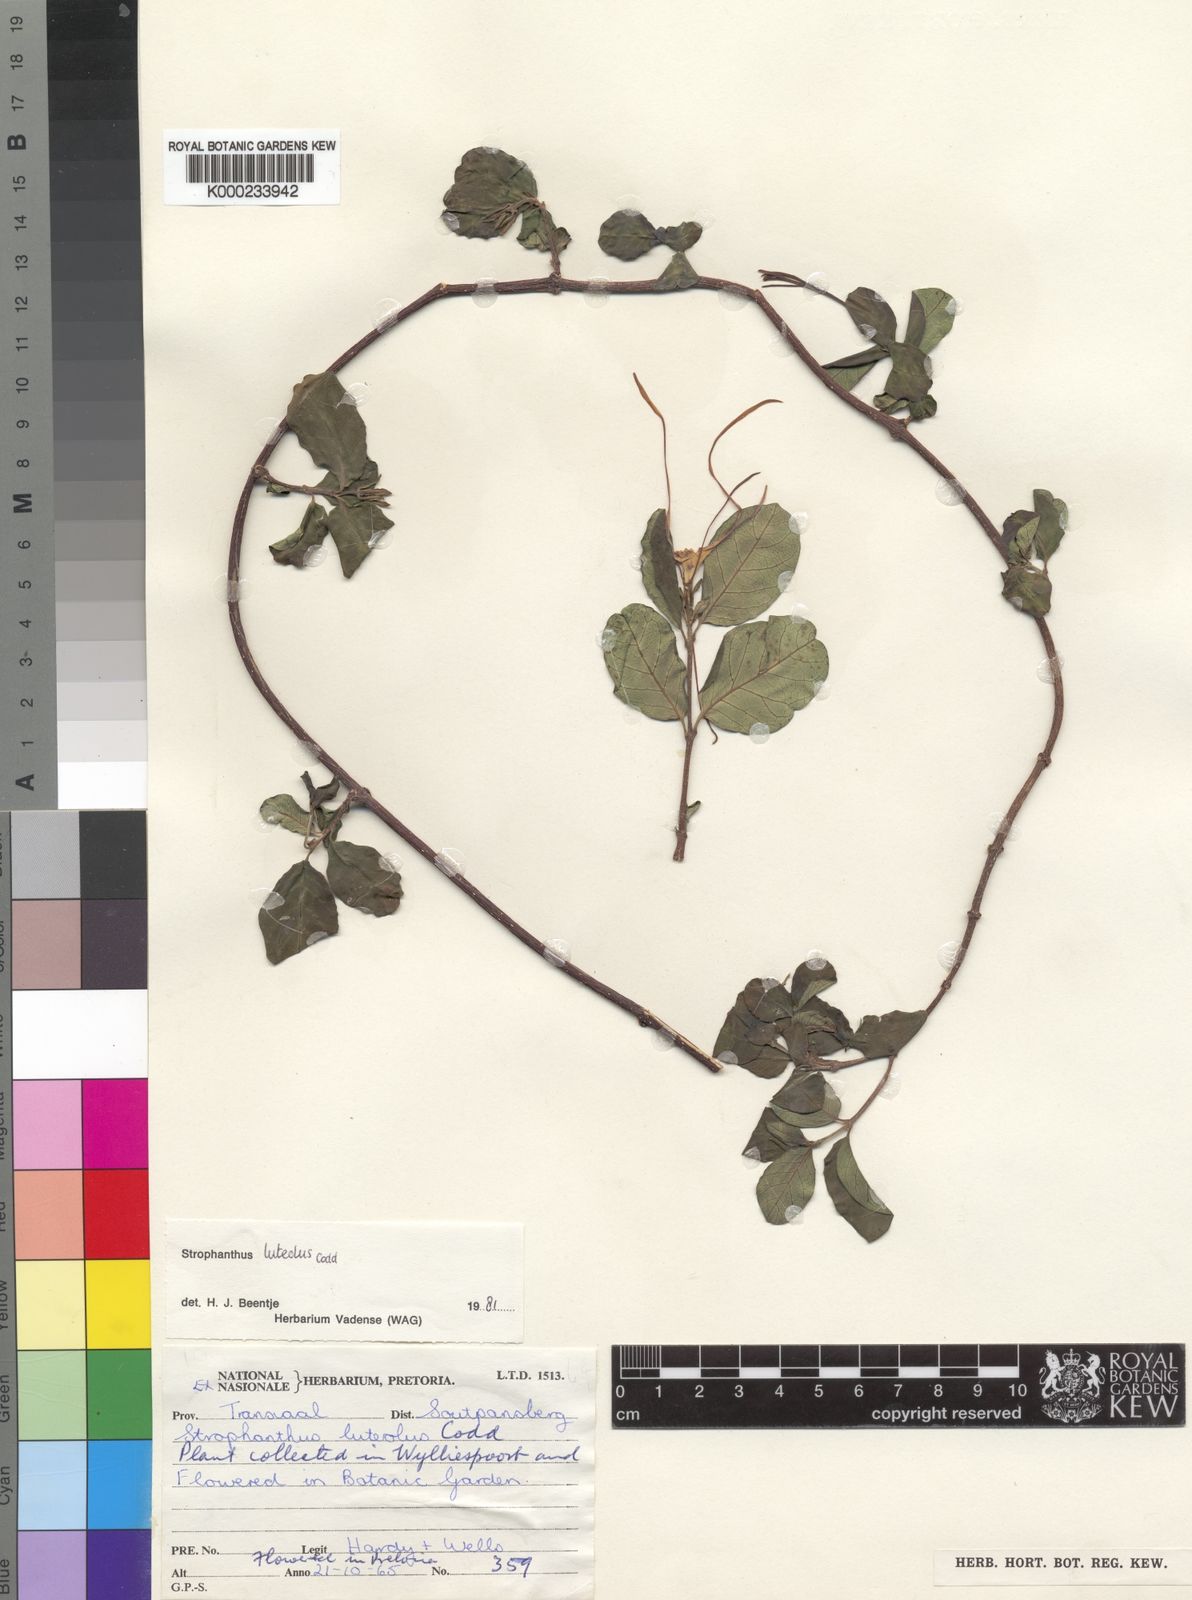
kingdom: Plantae
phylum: Tracheophyta
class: Magnoliopsida
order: Gentianales
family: Apocynaceae
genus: Strophanthus
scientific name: Strophanthus luteolus
